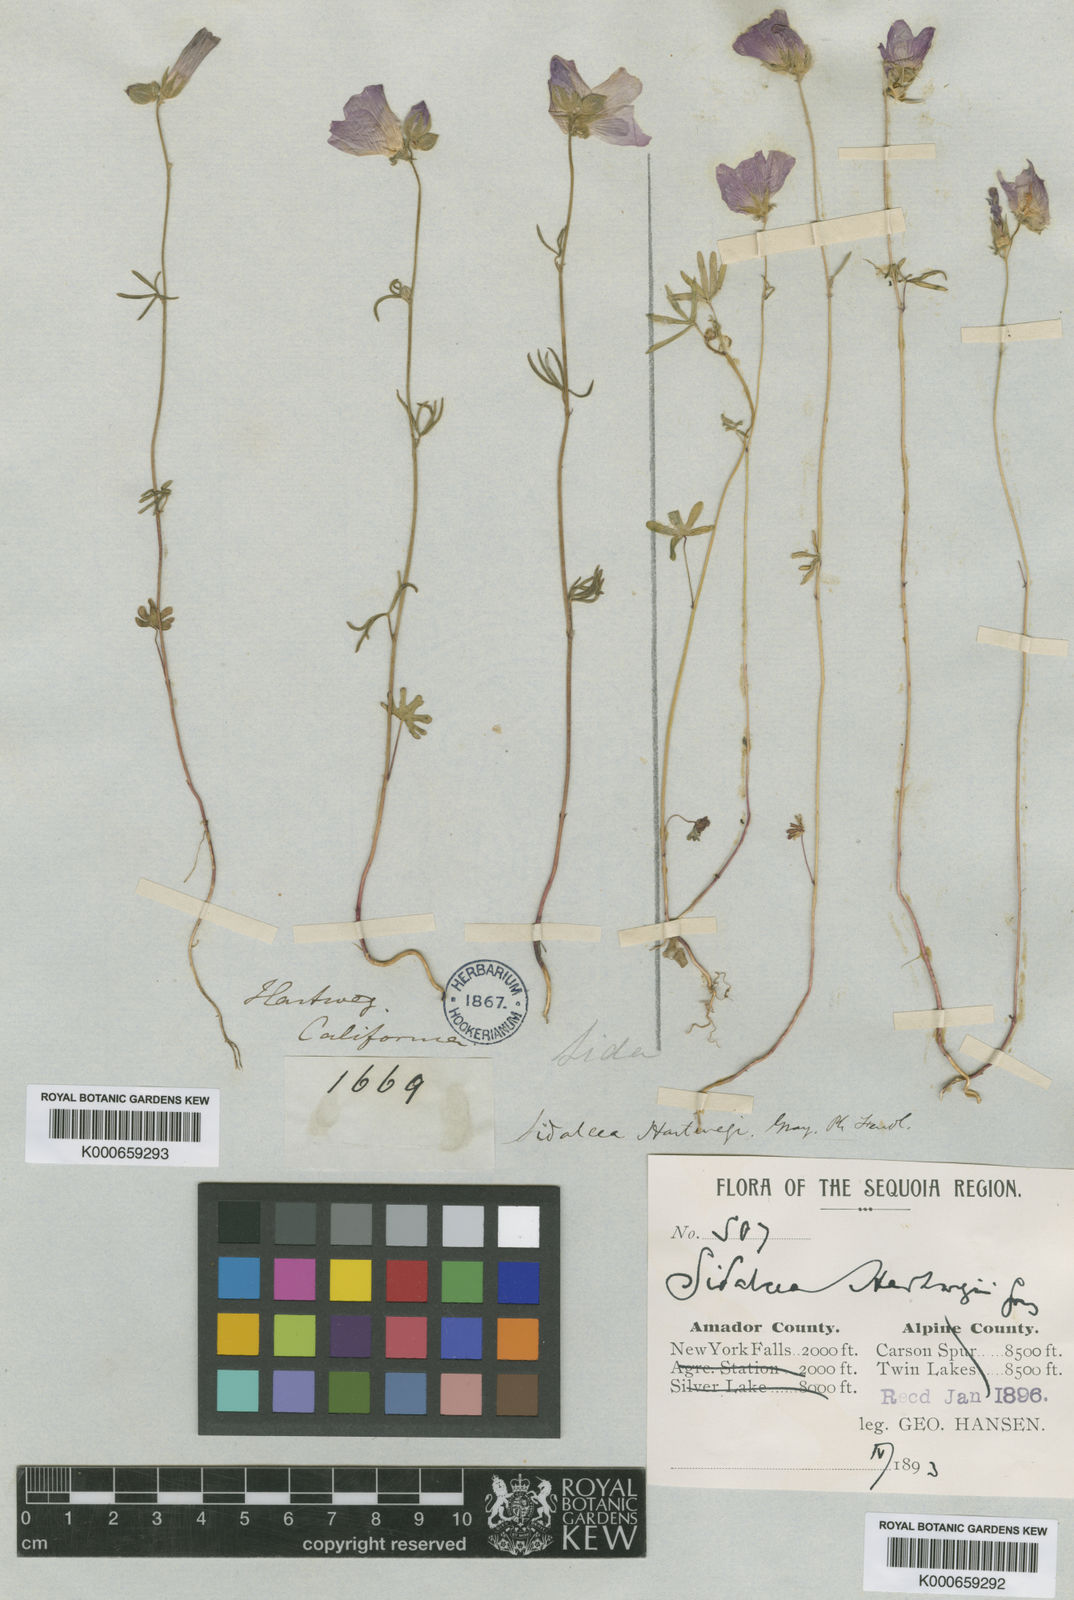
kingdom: Plantae
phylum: Tracheophyta
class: Magnoliopsida
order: Malvales
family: Malvaceae
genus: Sidalcea
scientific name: Sidalcea hartwegii
